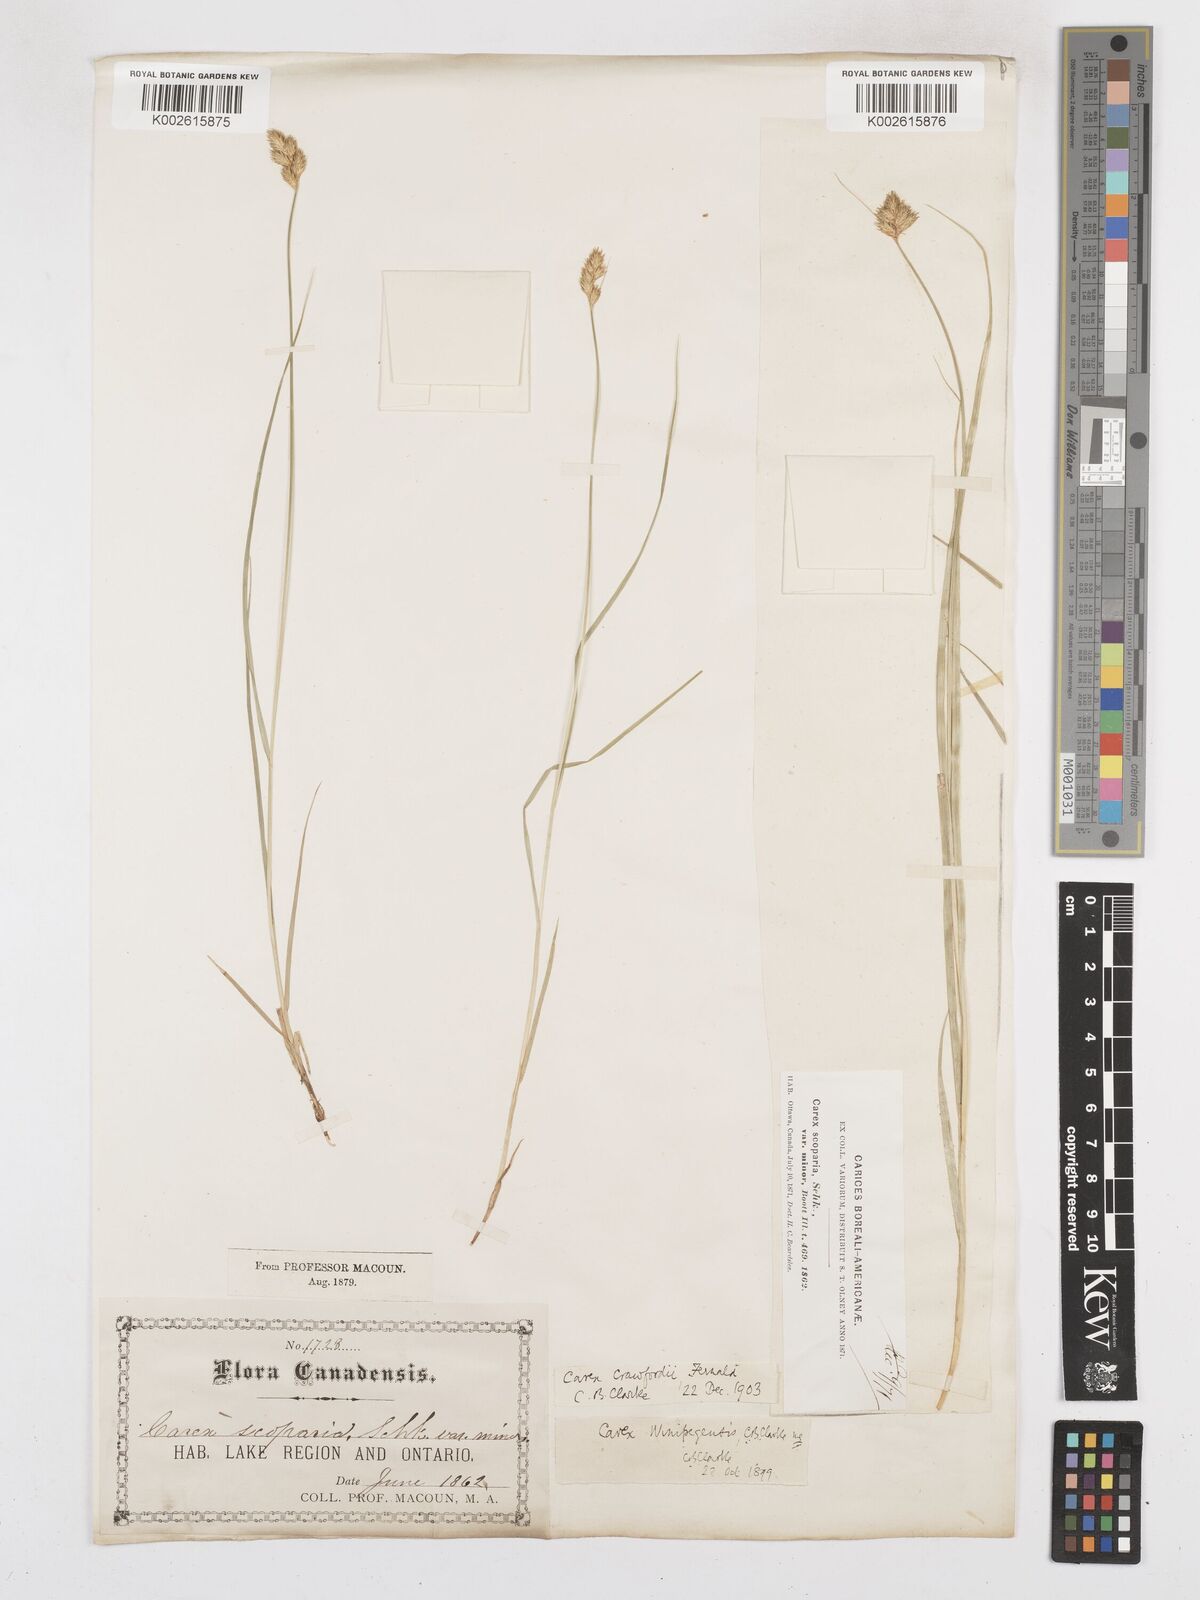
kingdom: Plantae
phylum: Tracheophyta
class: Liliopsida
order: Poales
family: Cyperaceae
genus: Carex
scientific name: Carex crawfordii
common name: Crawford's sedge
